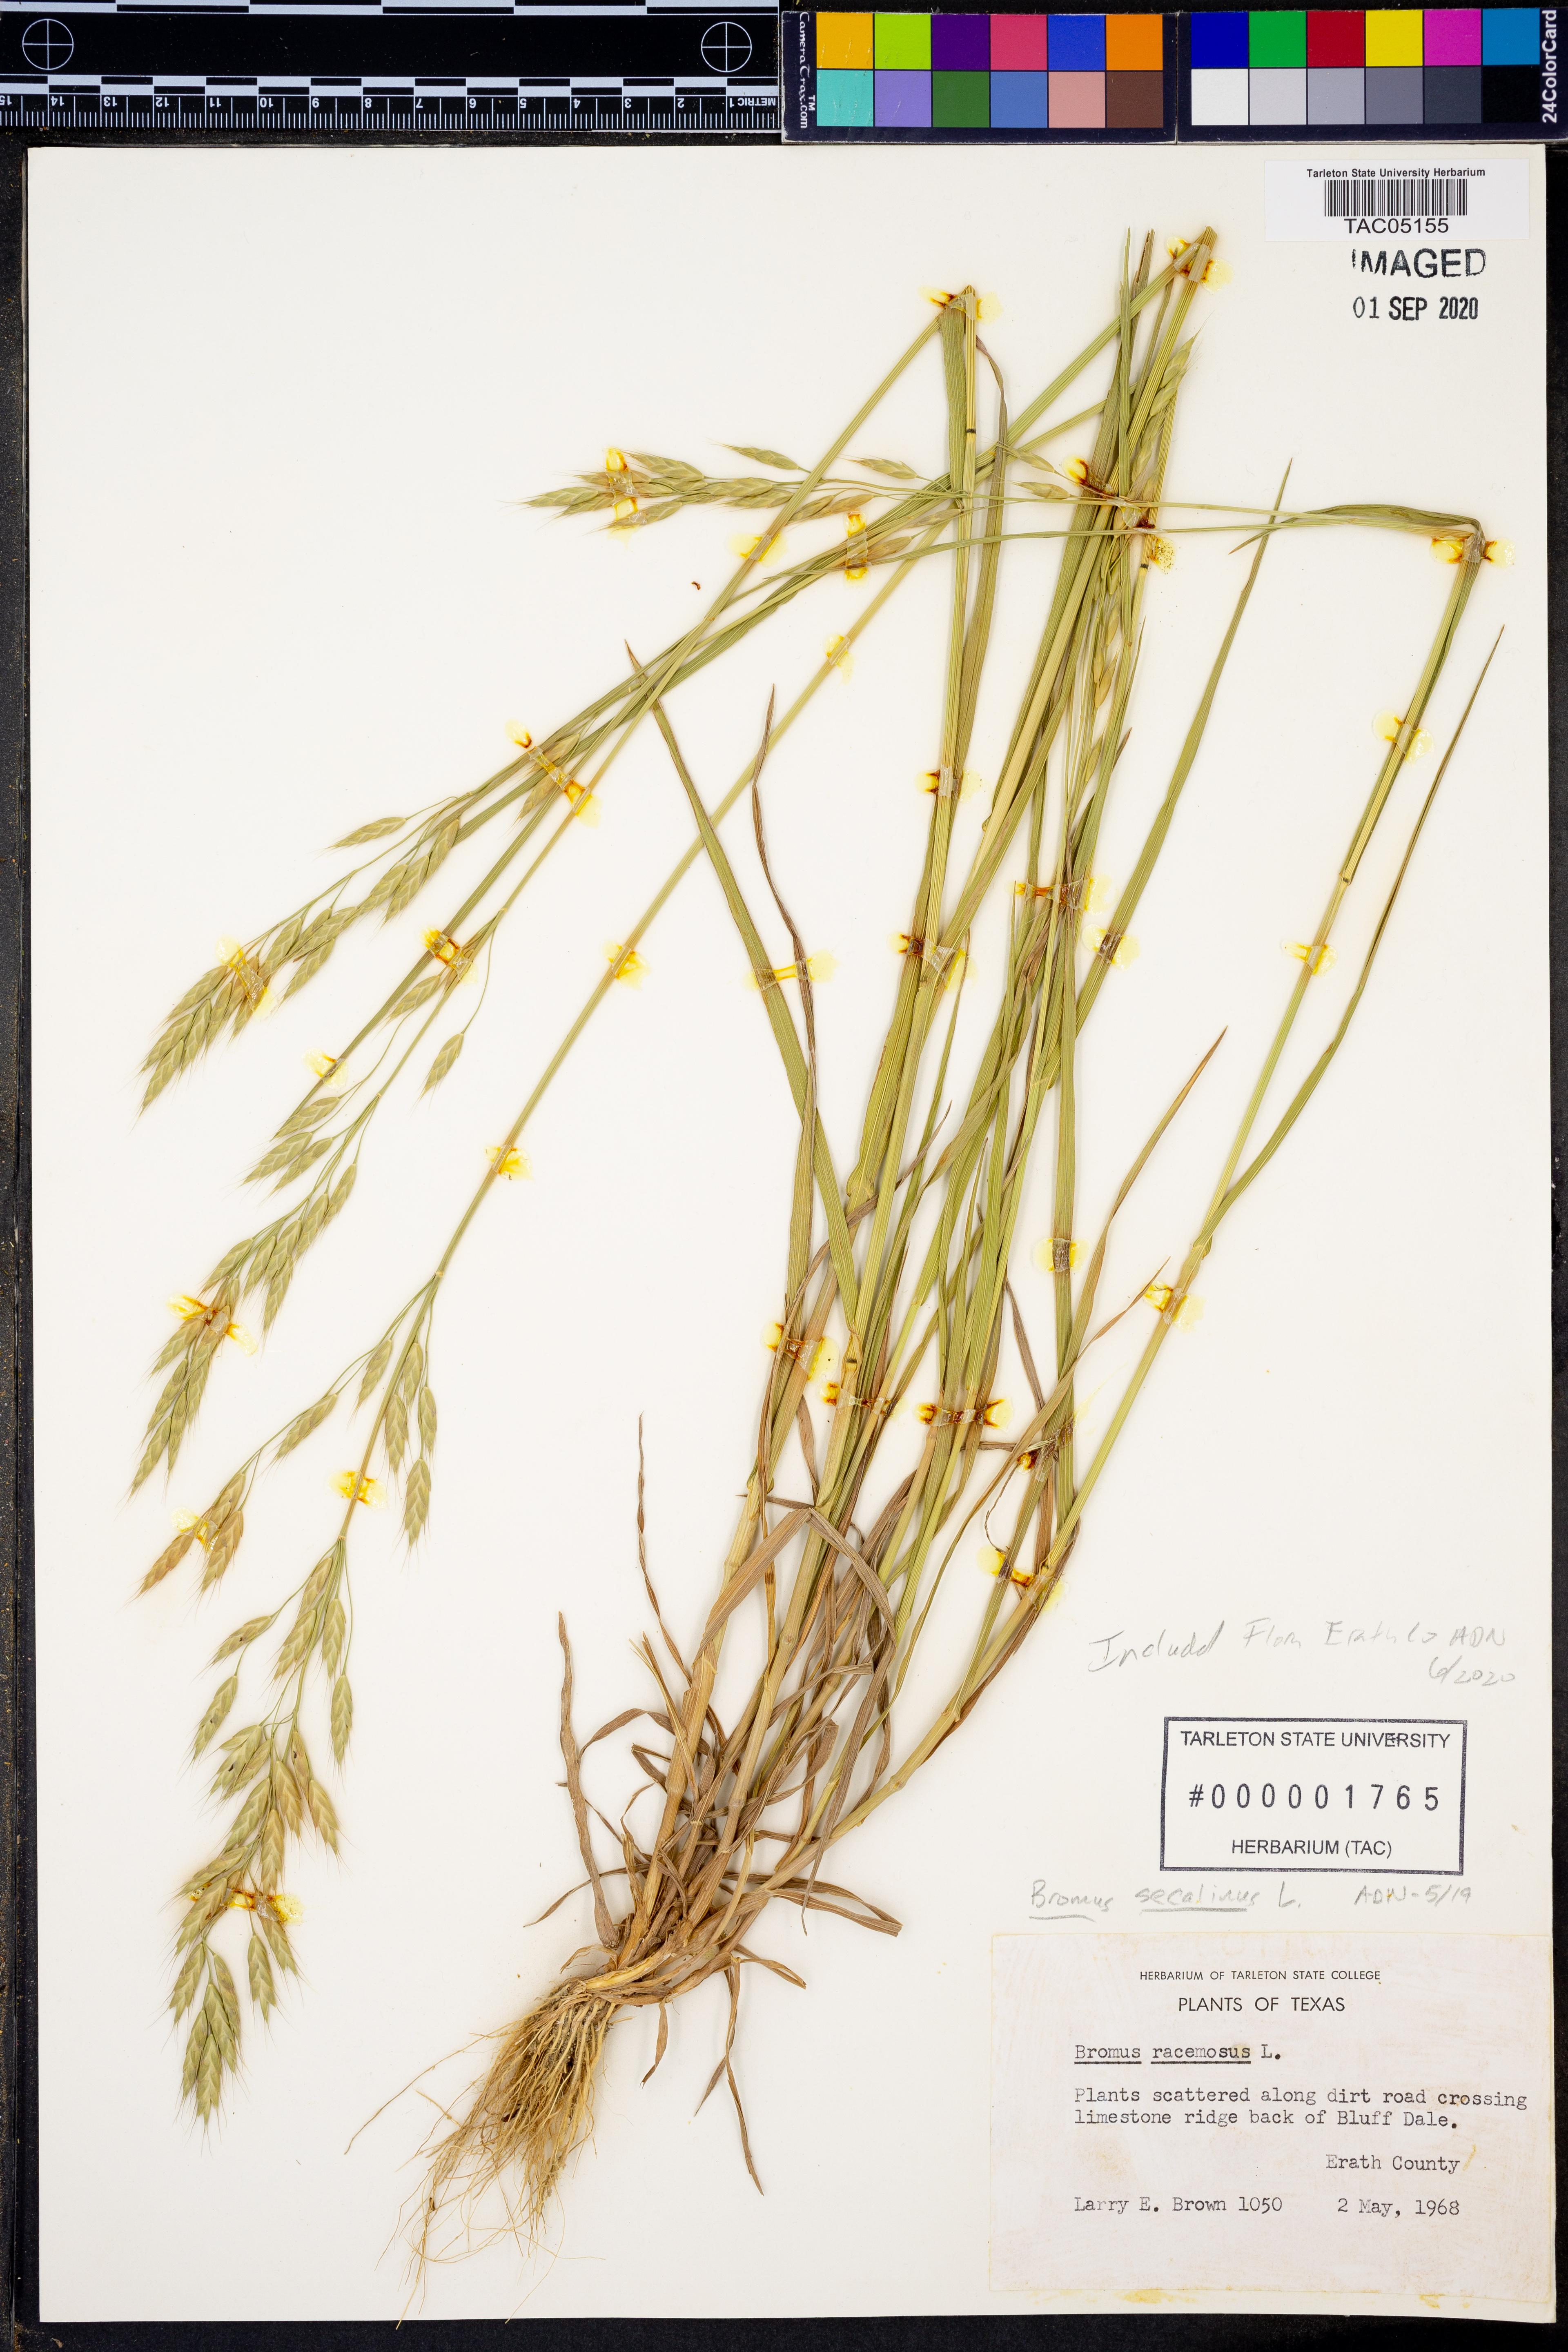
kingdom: Plantae
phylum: Tracheophyta
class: Liliopsida
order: Poales
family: Poaceae
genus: Bromus
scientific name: Bromus secalinus
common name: Rye brome
